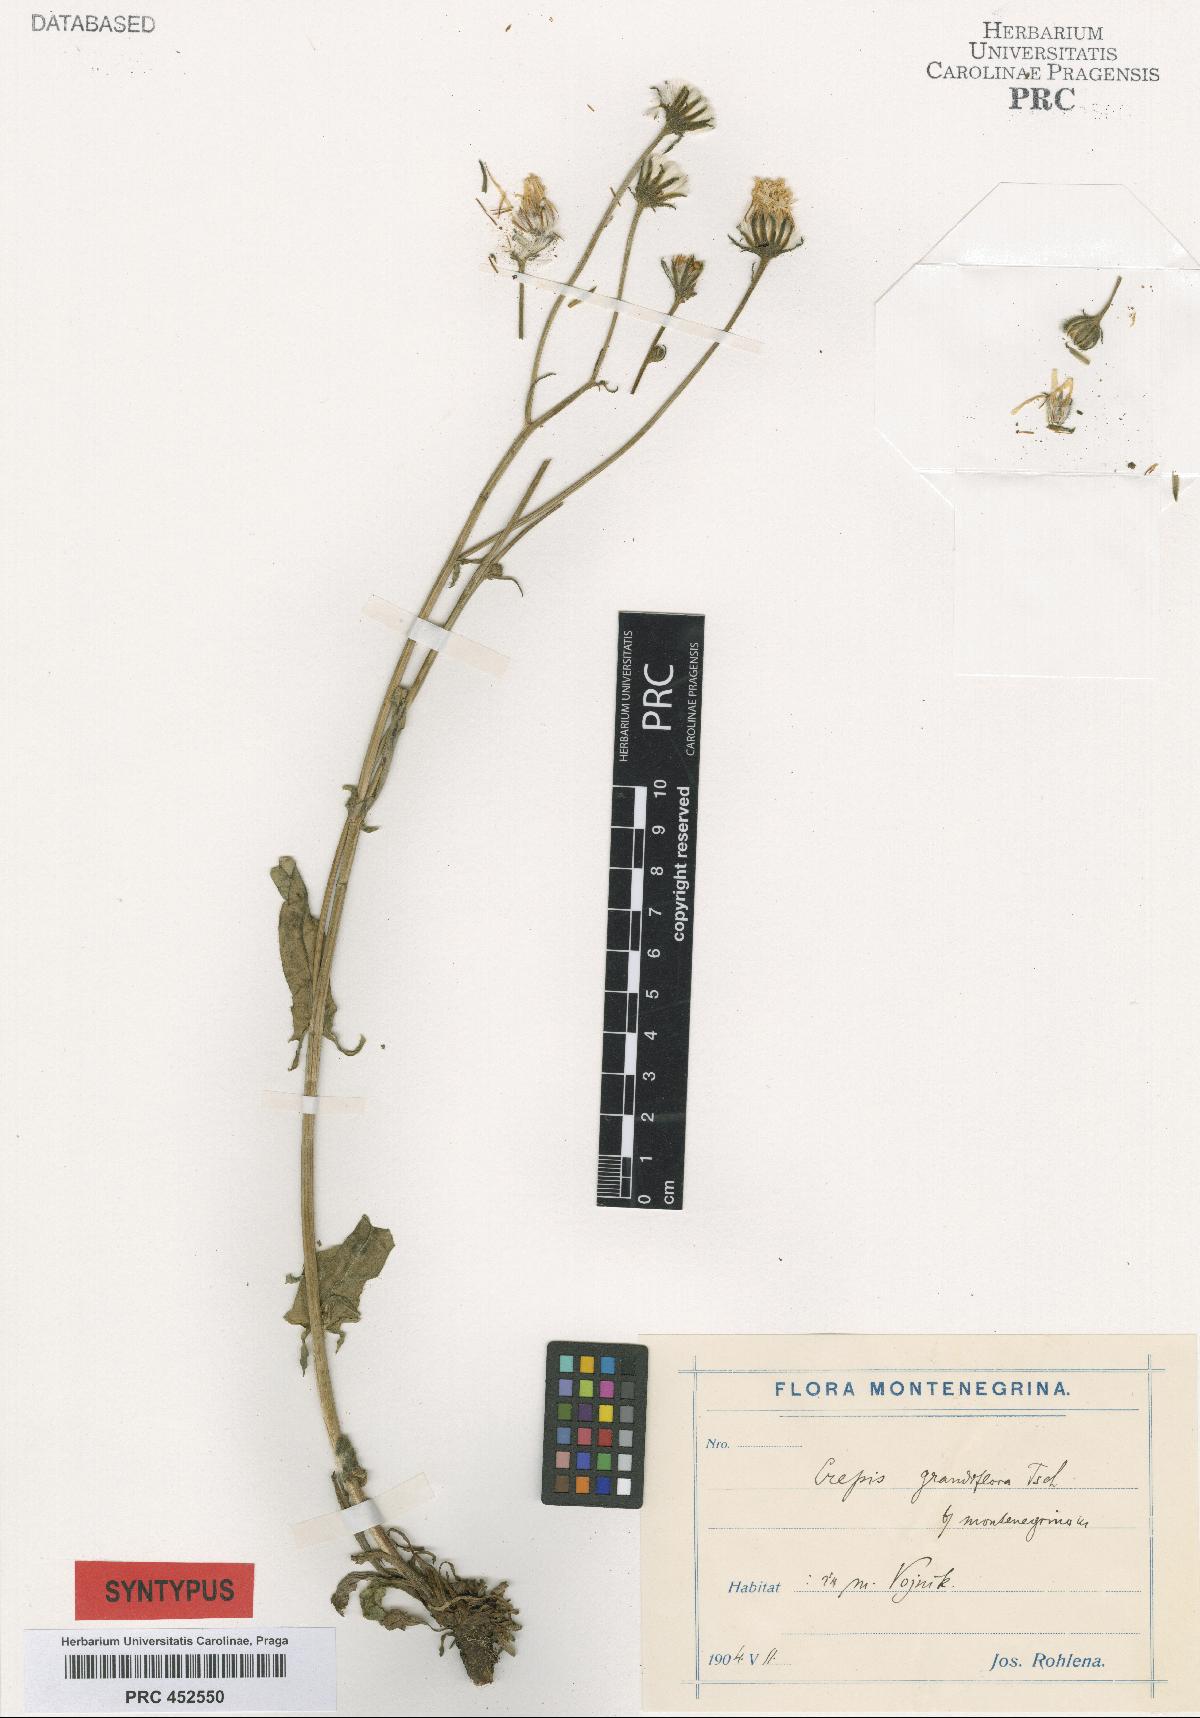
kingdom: Plantae
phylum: Tracheophyta
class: Magnoliopsida
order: Asterales
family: Asteraceae
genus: Crepis
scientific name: Crepis pyrenaica
